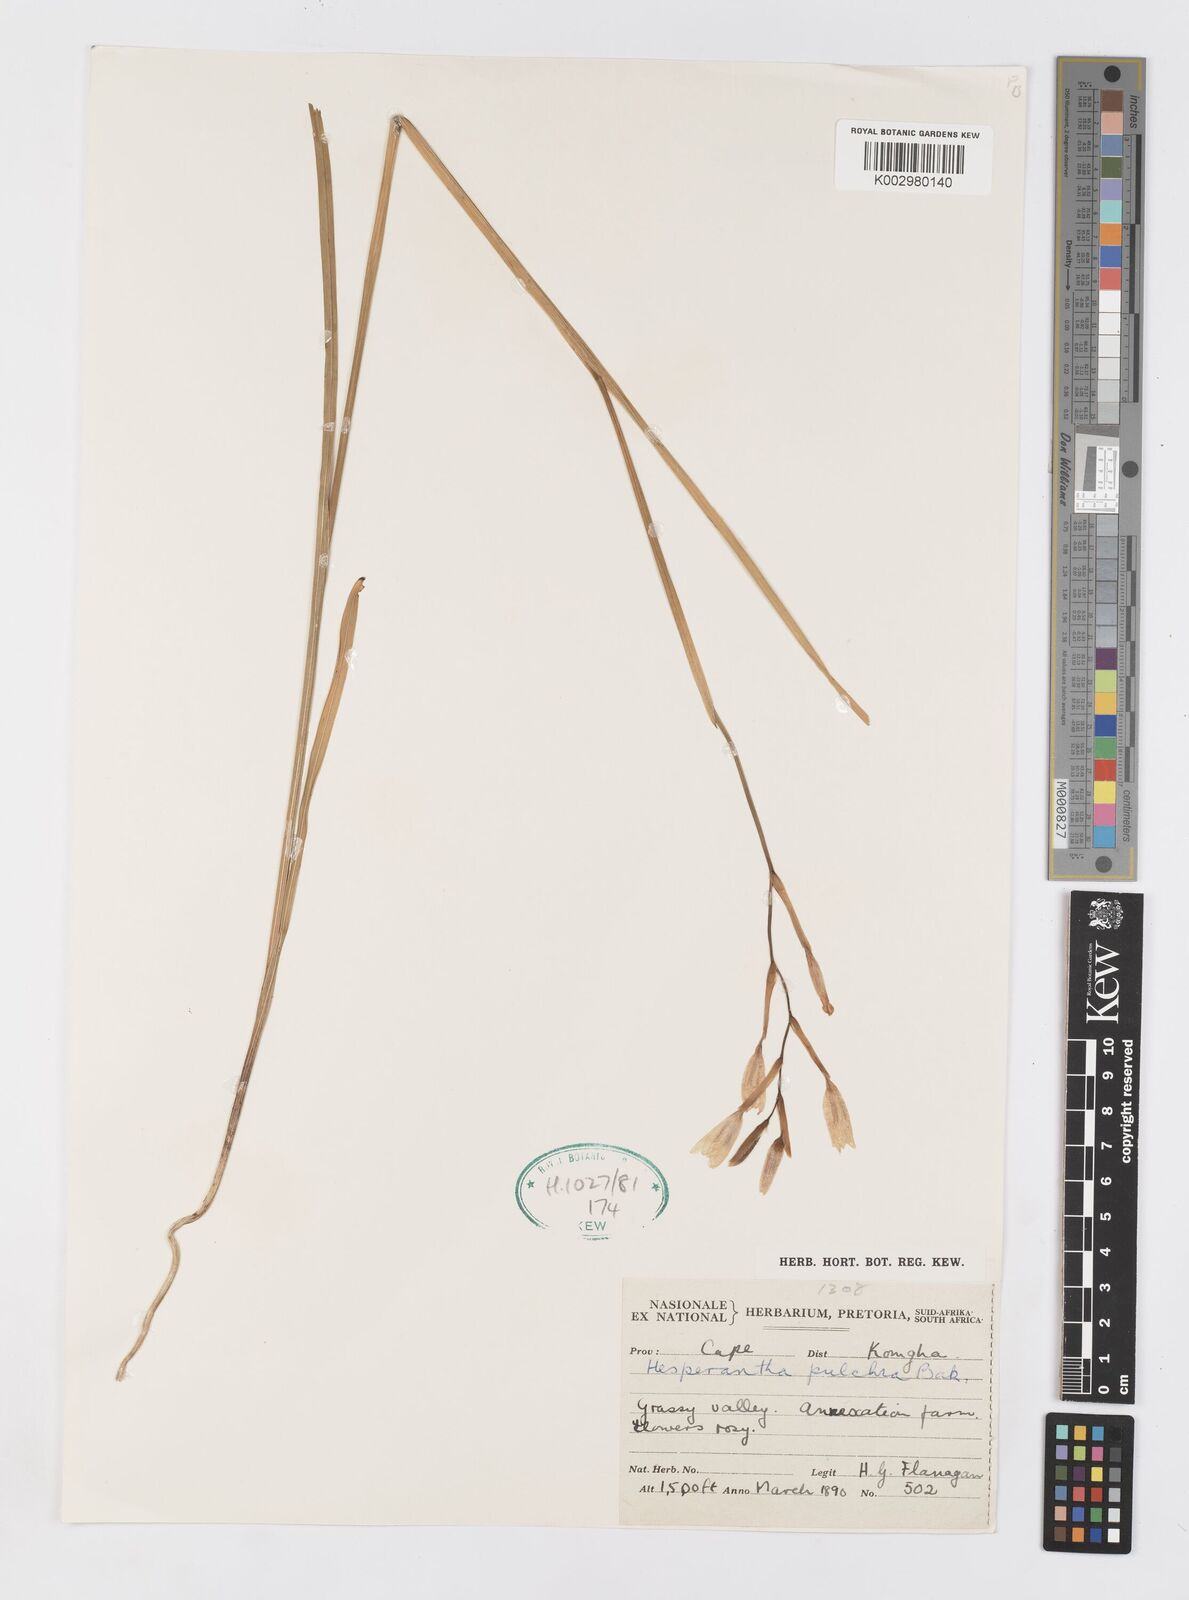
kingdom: Plantae
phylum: Tracheophyta
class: Liliopsida
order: Asparagales
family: Iridaceae
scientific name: Iridaceae
